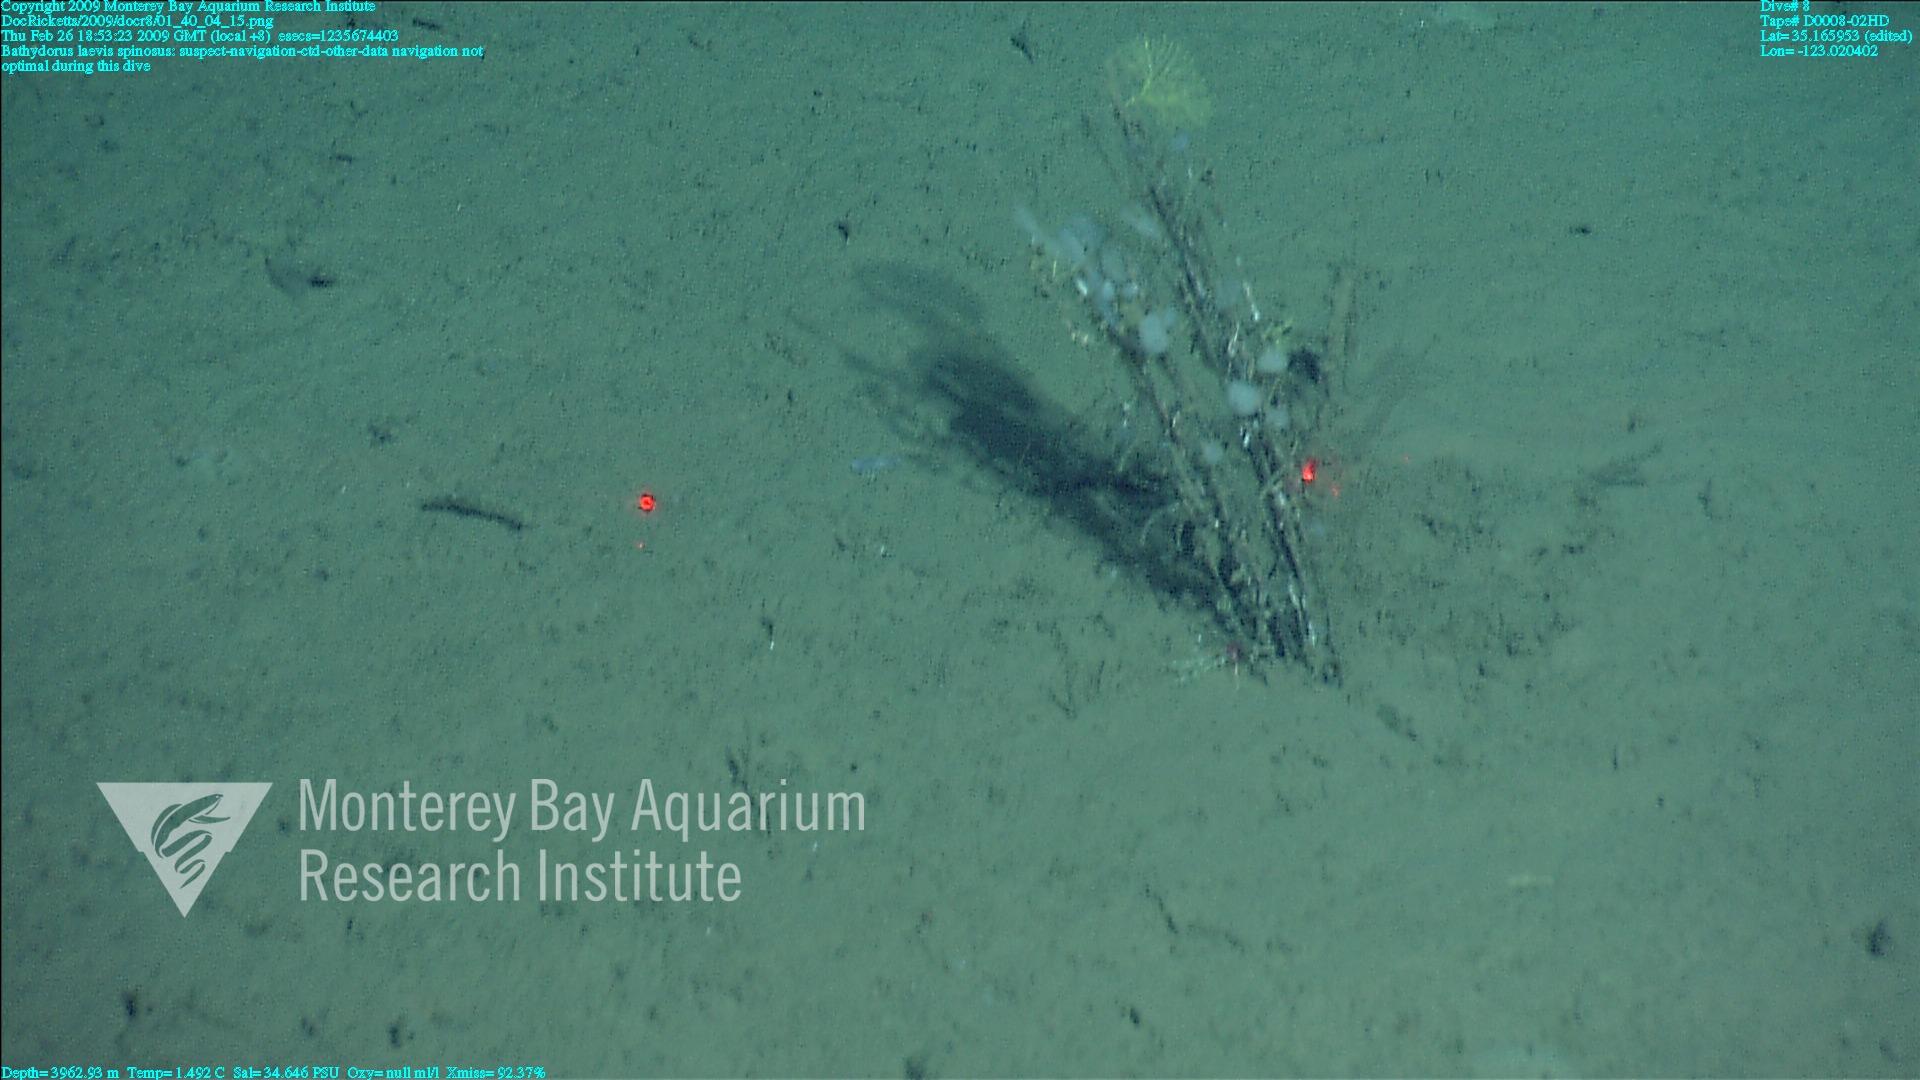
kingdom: Animalia
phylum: Porifera
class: Hexactinellida
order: Lyssacinosida
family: Rossellidae
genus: Bathydorus
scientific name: Bathydorus spinosus
